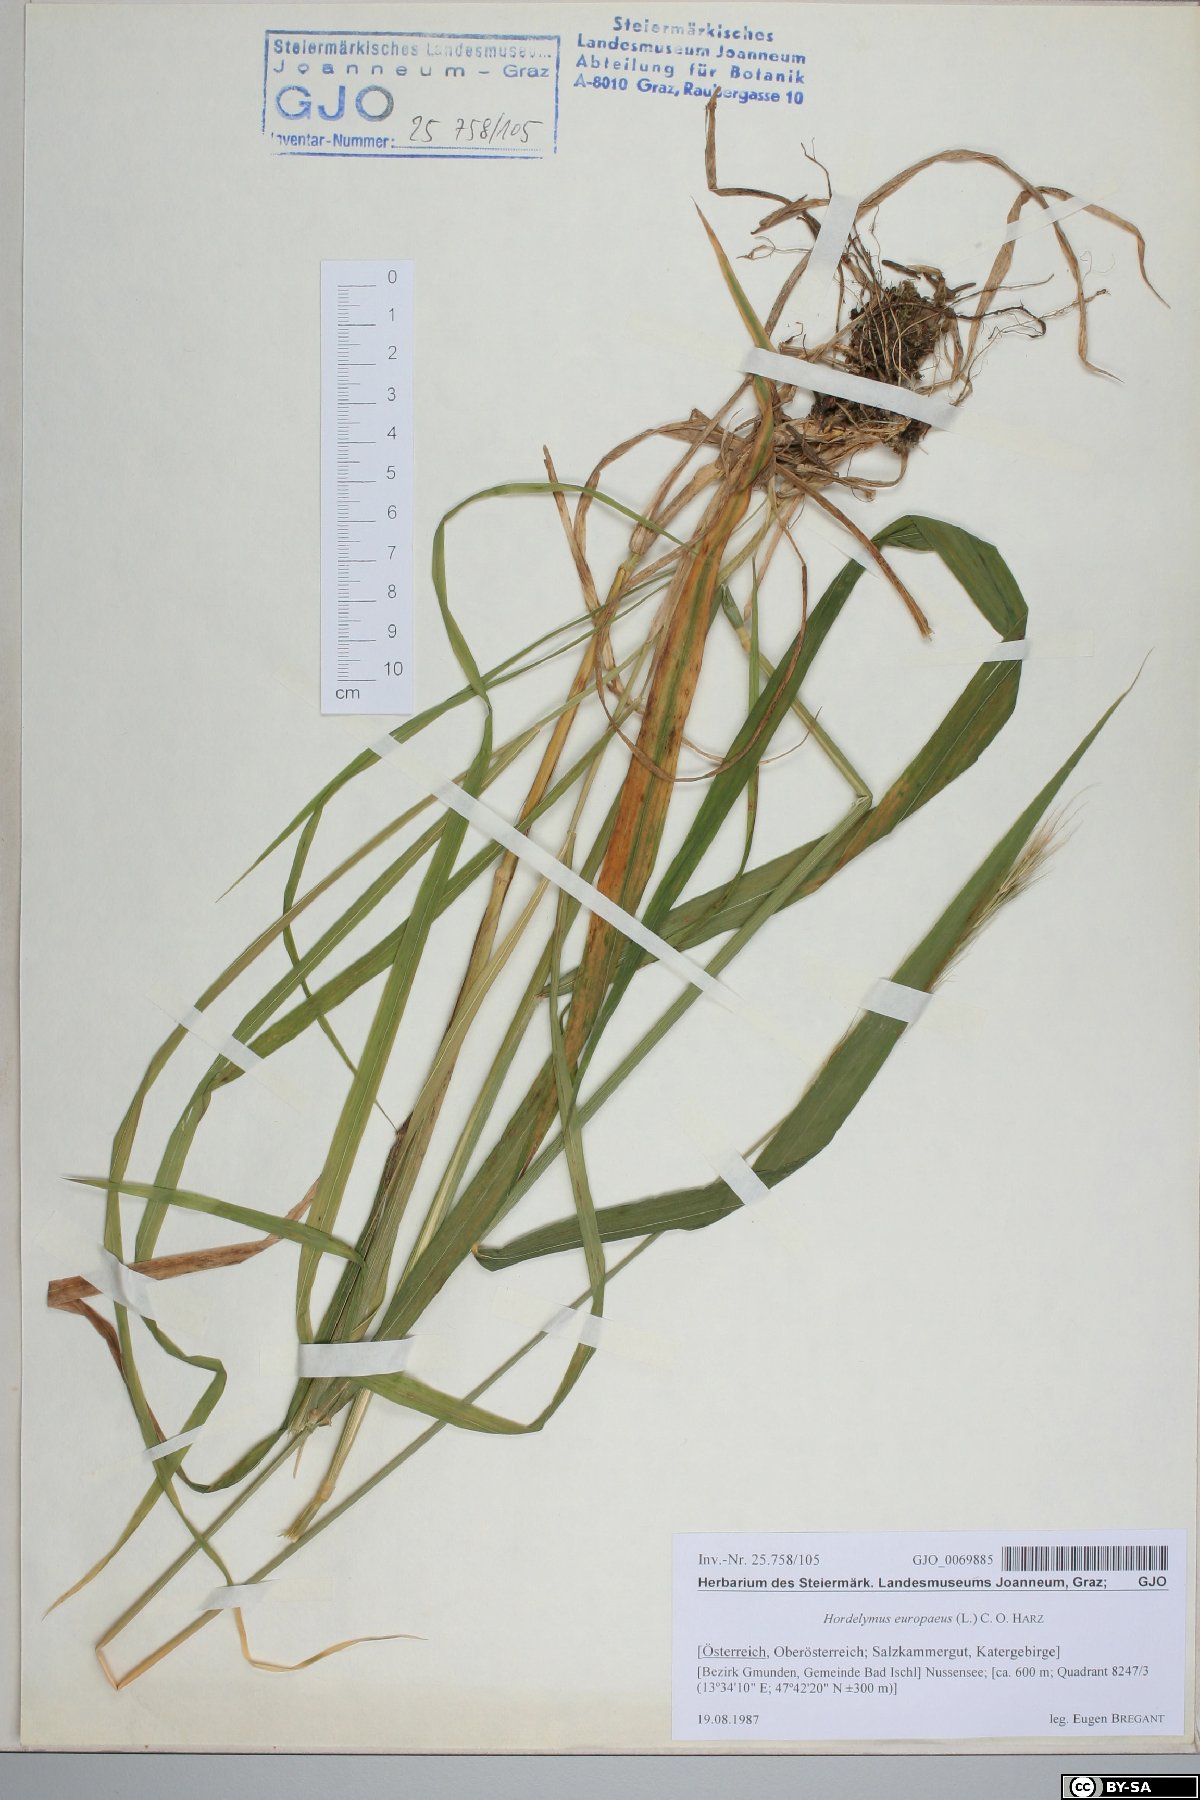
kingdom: Plantae
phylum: Tracheophyta
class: Liliopsida
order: Poales
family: Poaceae
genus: Hordelymus
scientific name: Hordelymus europaeus
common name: Wood-barley
